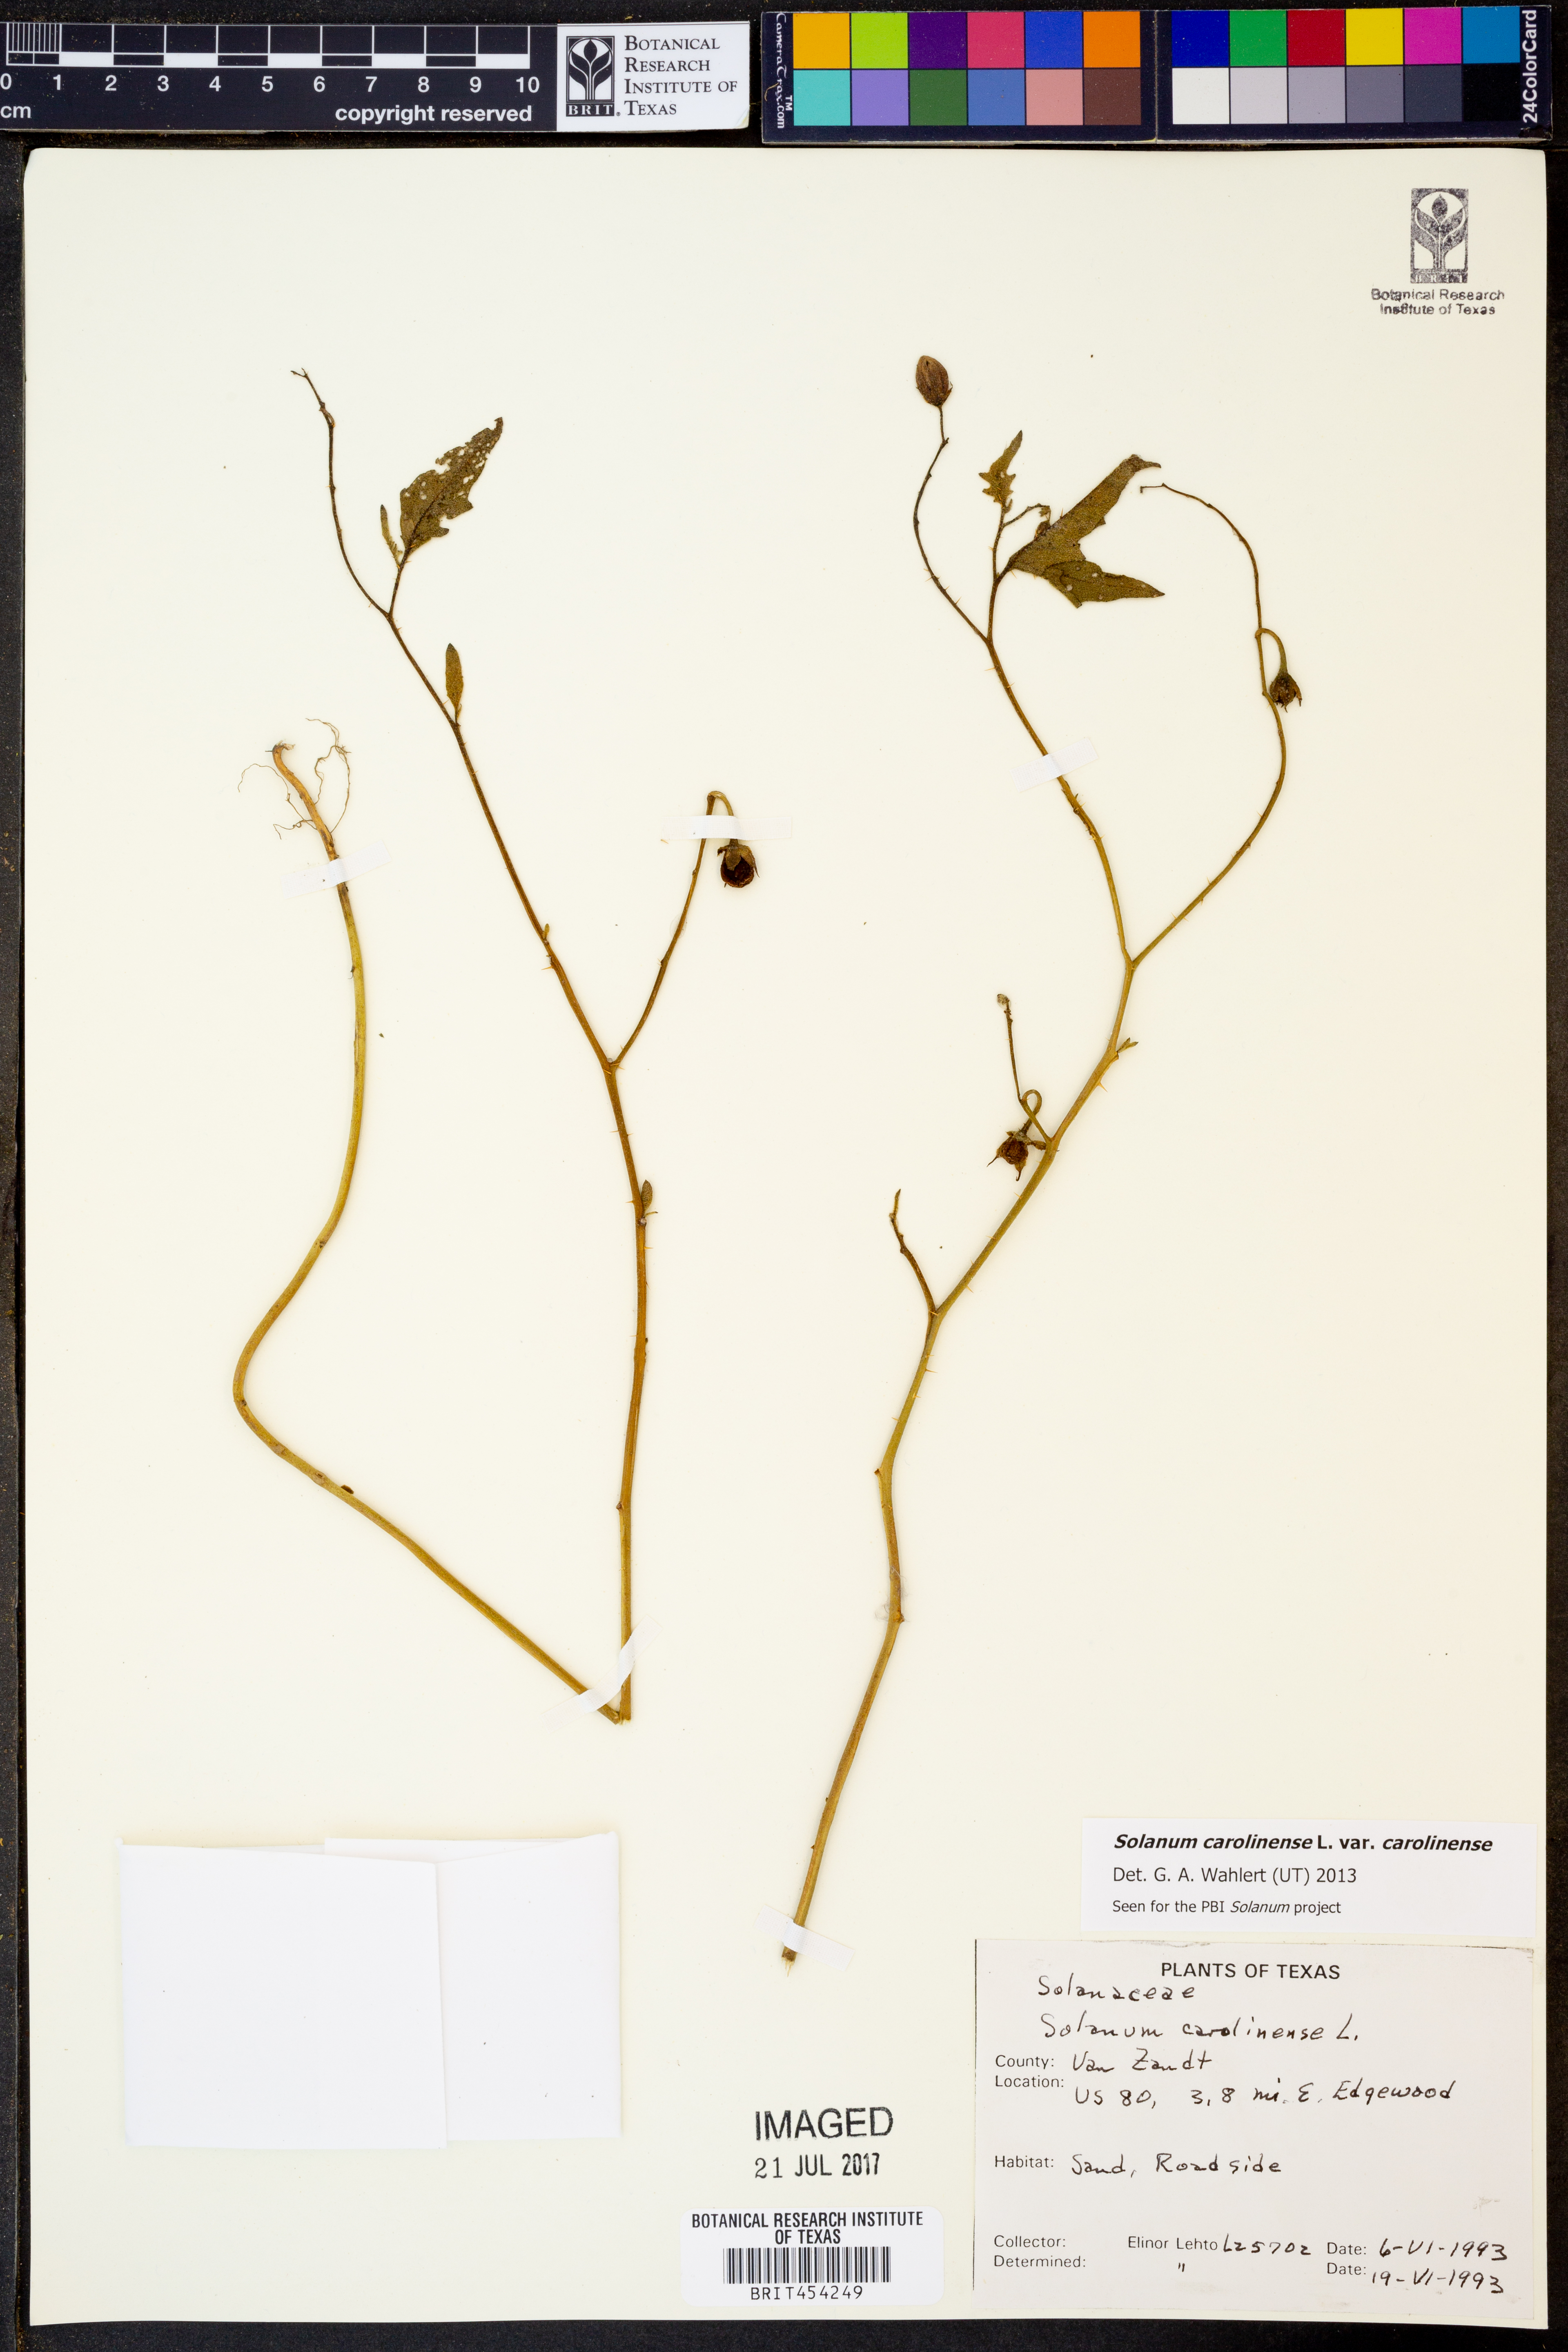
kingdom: Plantae
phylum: Tracheophyta
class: Magnoliopsida
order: Solanales
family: Solanaceae
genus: Solanum
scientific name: Solanum carolinense
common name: Horse-nettle
